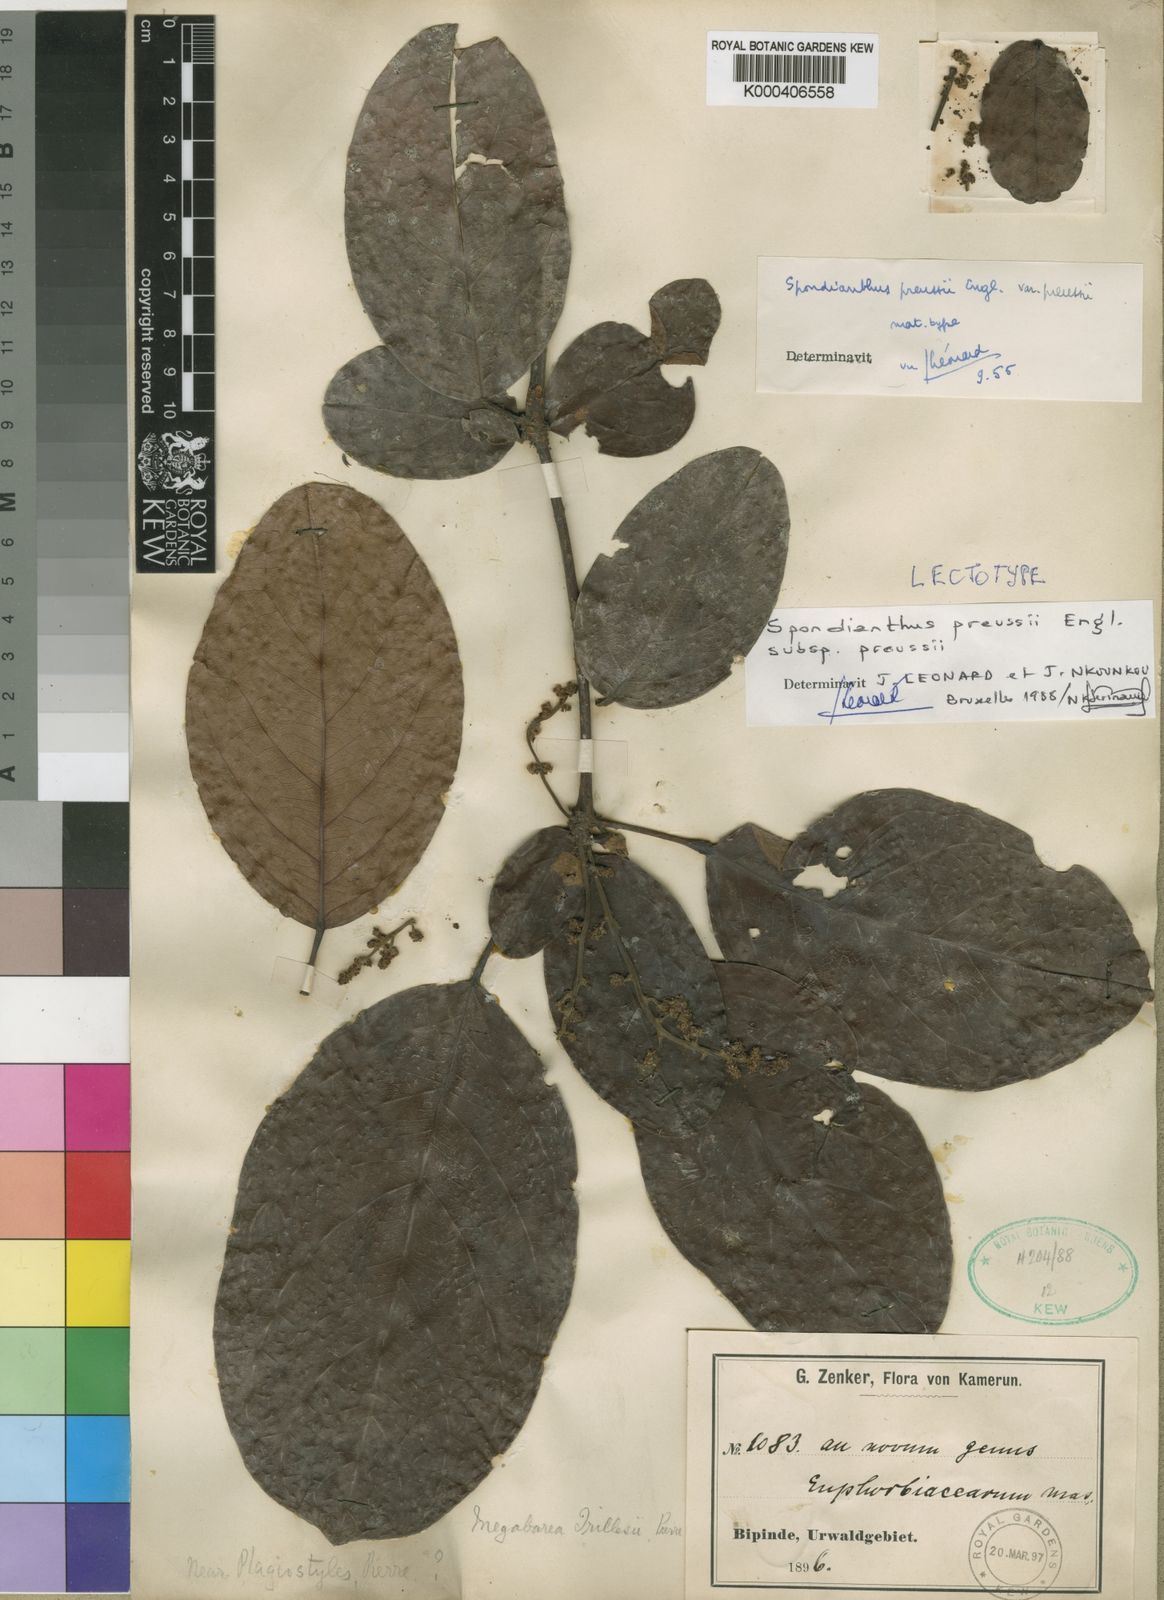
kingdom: Plantae
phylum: Tracheophyta
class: Magnoliopsida
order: Malpighiales
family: Phyllanthaceae
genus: Spondianthus
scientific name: Spondianthus preussii
